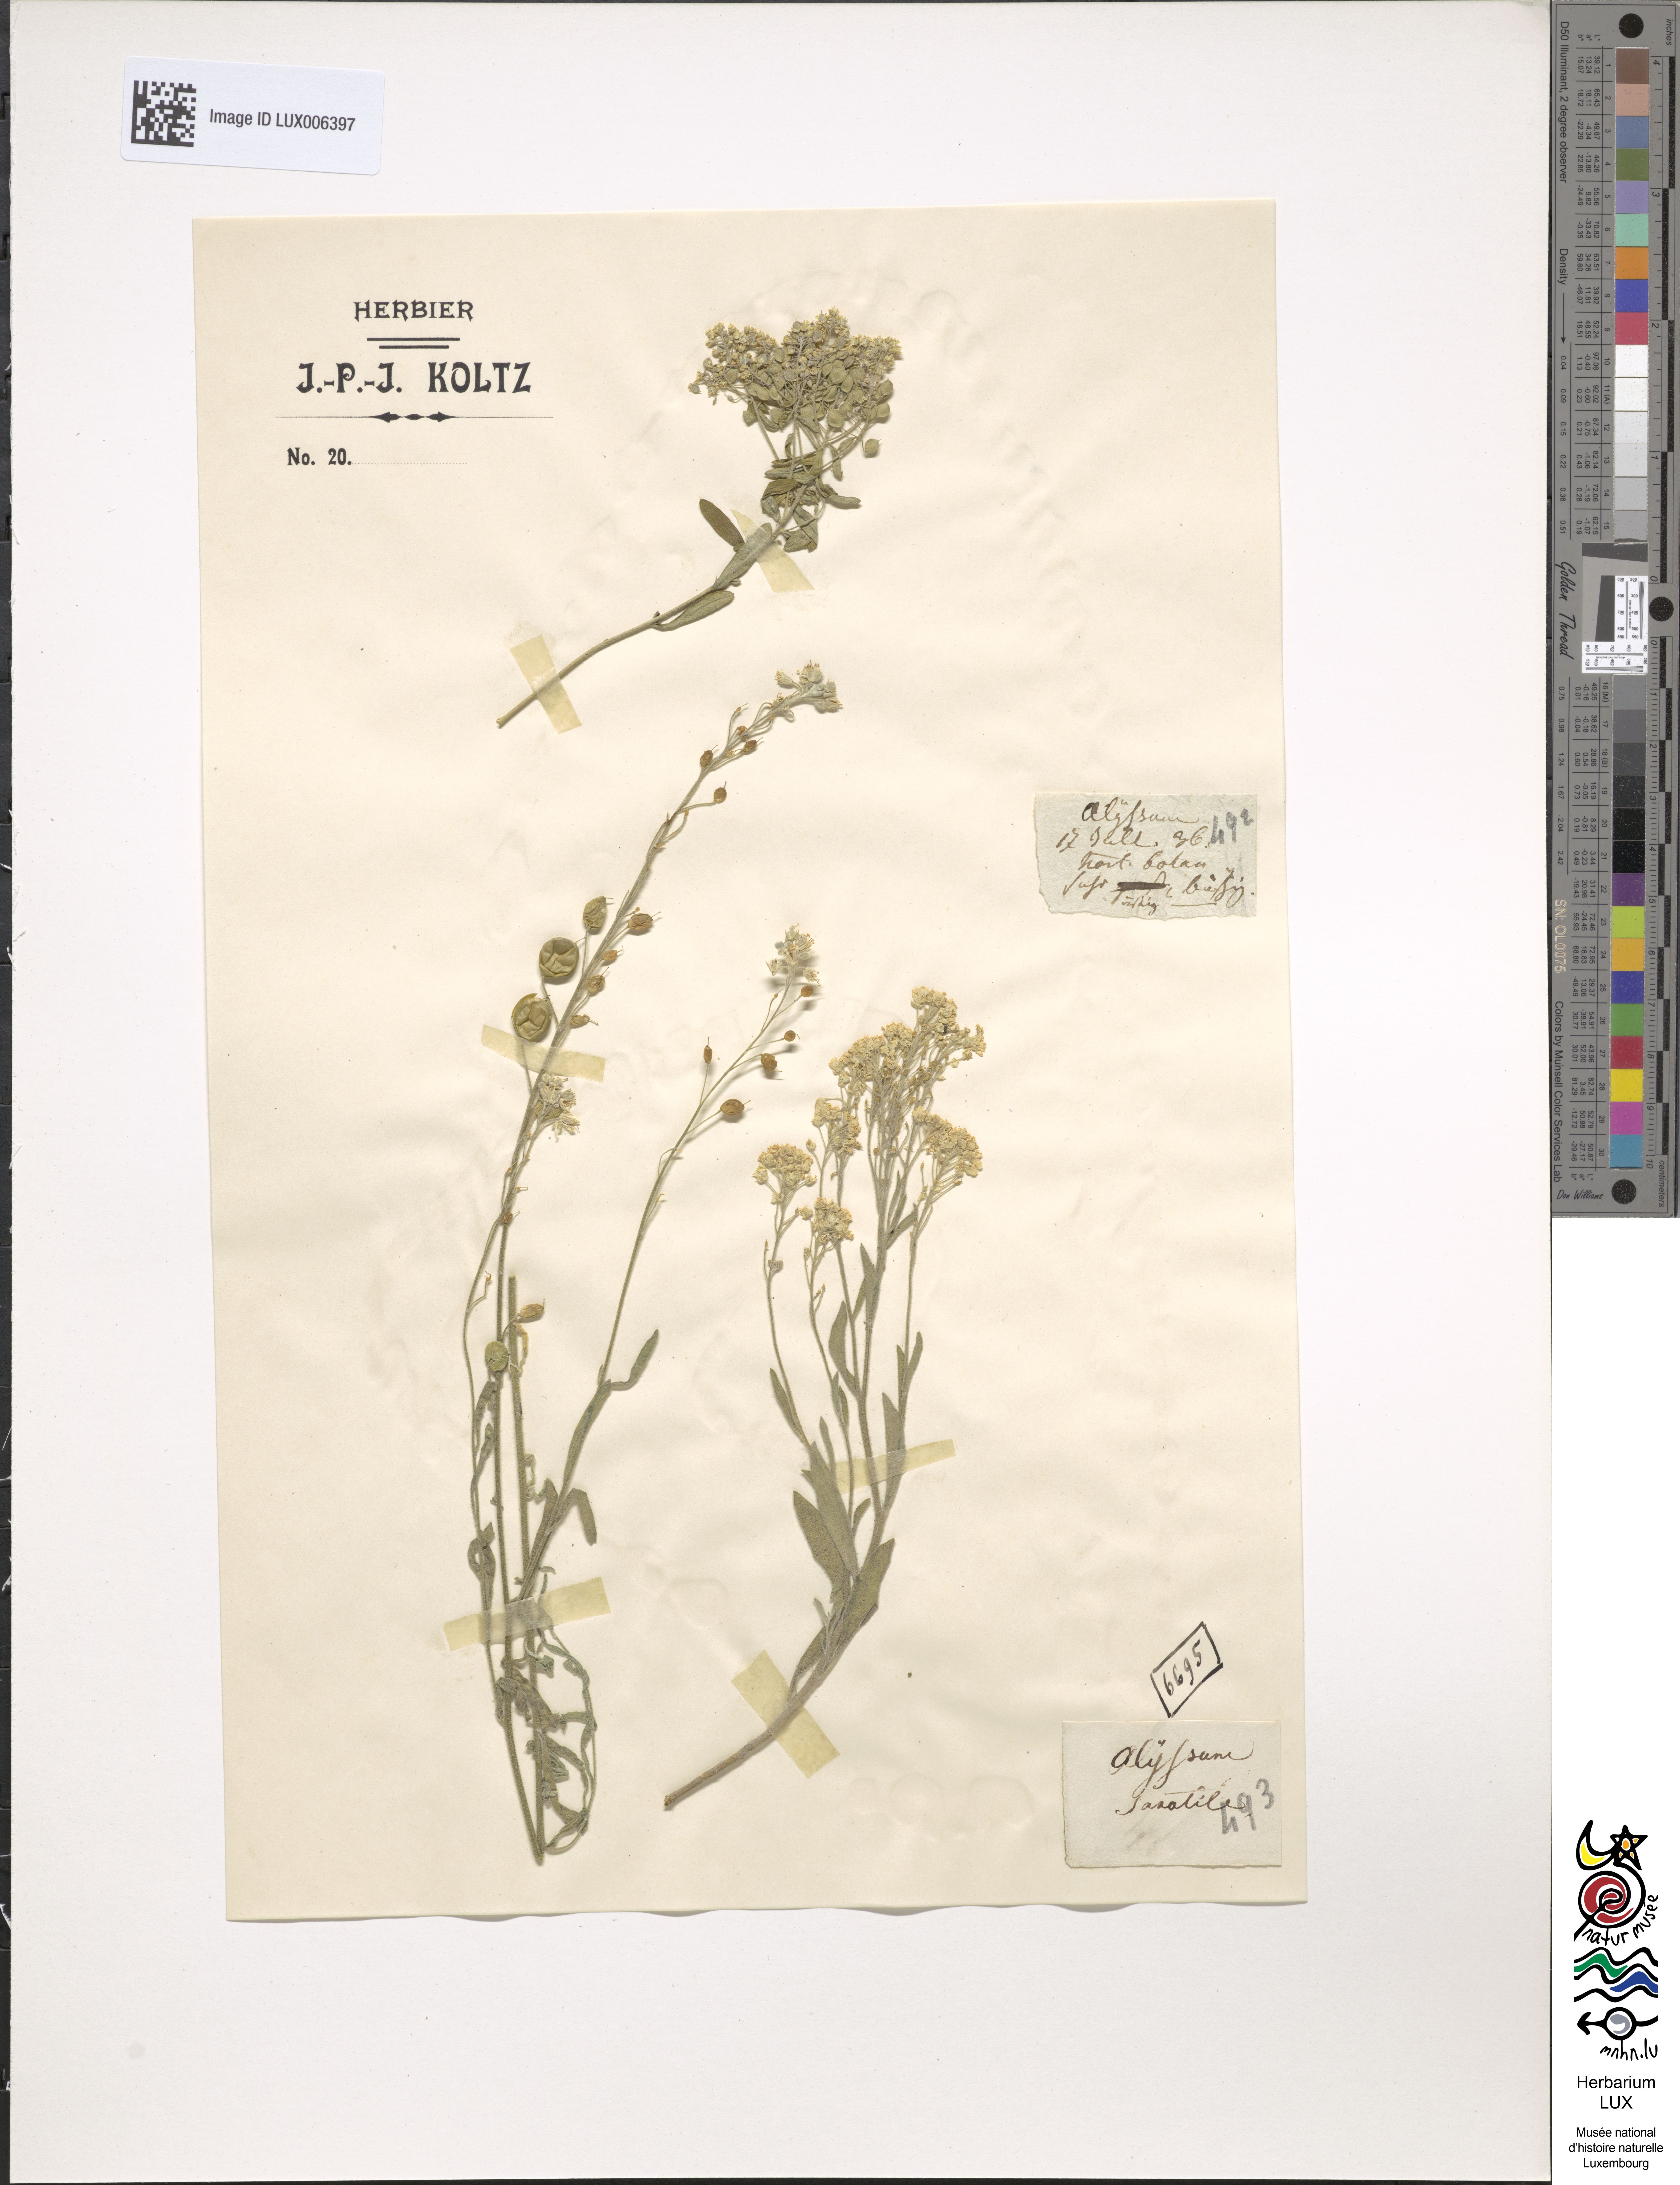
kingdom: Plantae
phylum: Tracheophyta
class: Magnoliopsida
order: Brassicales
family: Brassicaceae
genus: Aurinia
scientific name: Aurinia saxatilis
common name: Golden-tuft alyssum
